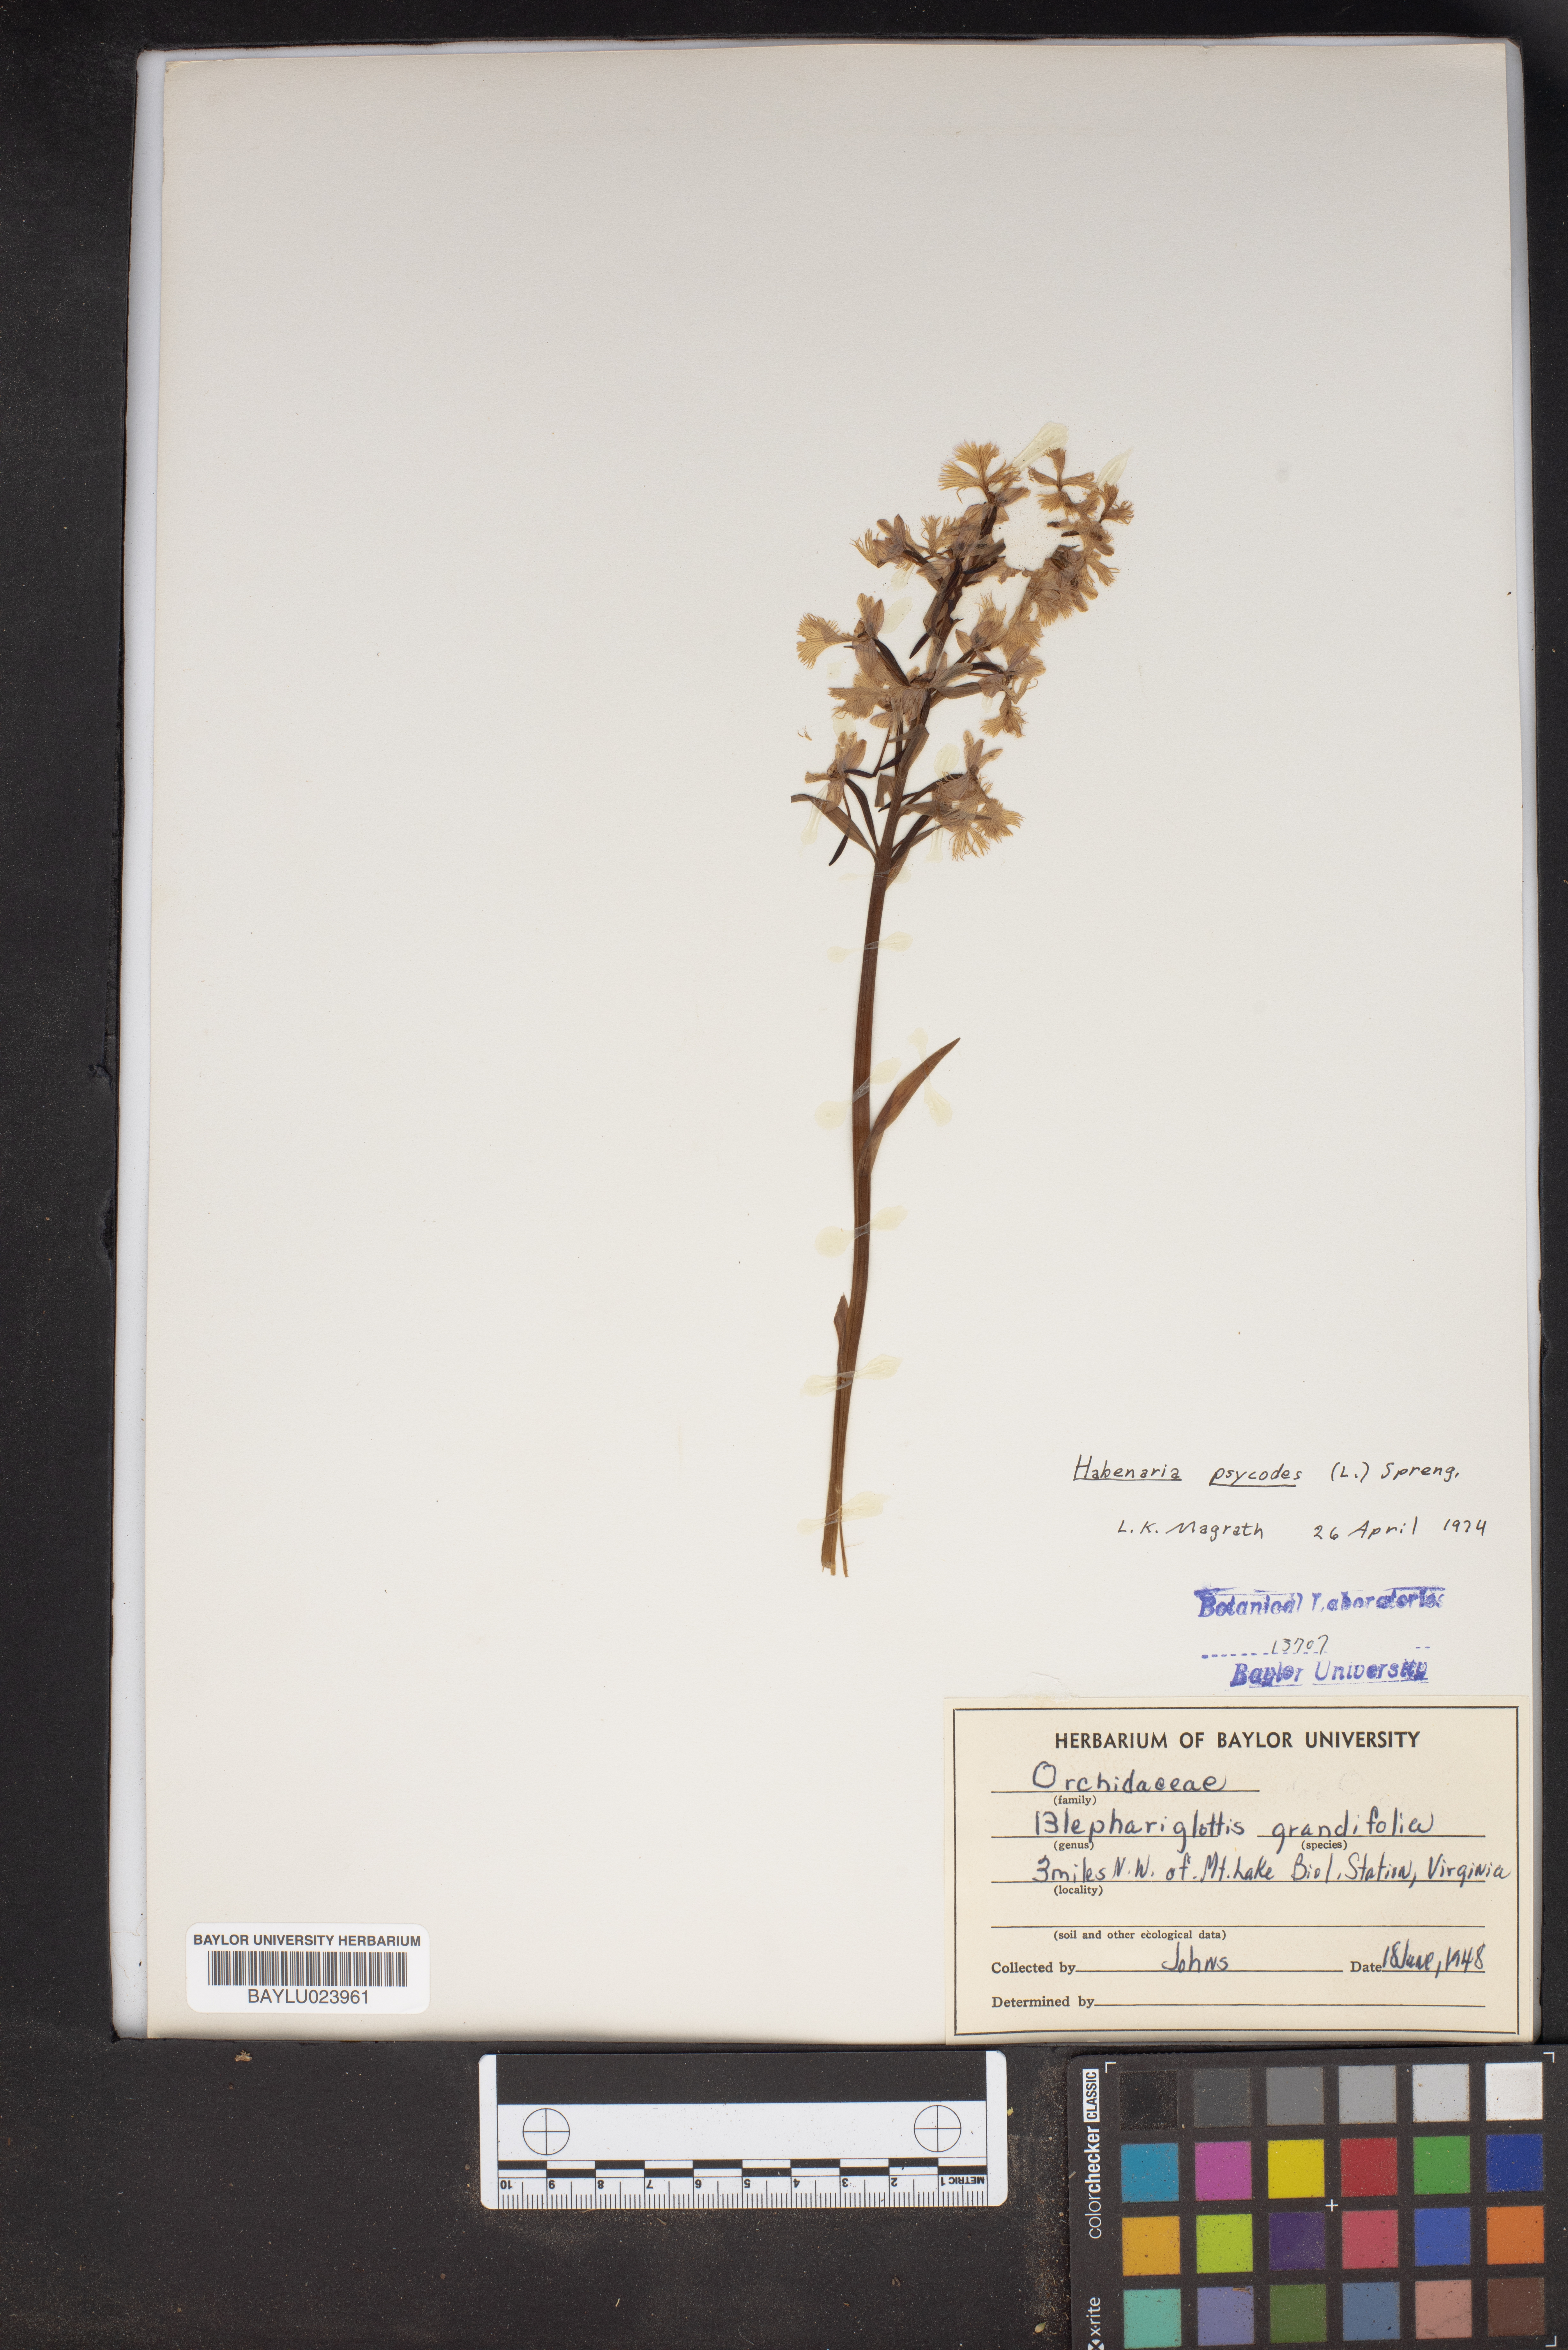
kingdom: Plantae
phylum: Tracheophyta
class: Liliopsida
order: Asparagales
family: Orchidaceae
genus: Platanthera
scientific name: Platanthera psycodes
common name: Lesser purple fringed orchid
